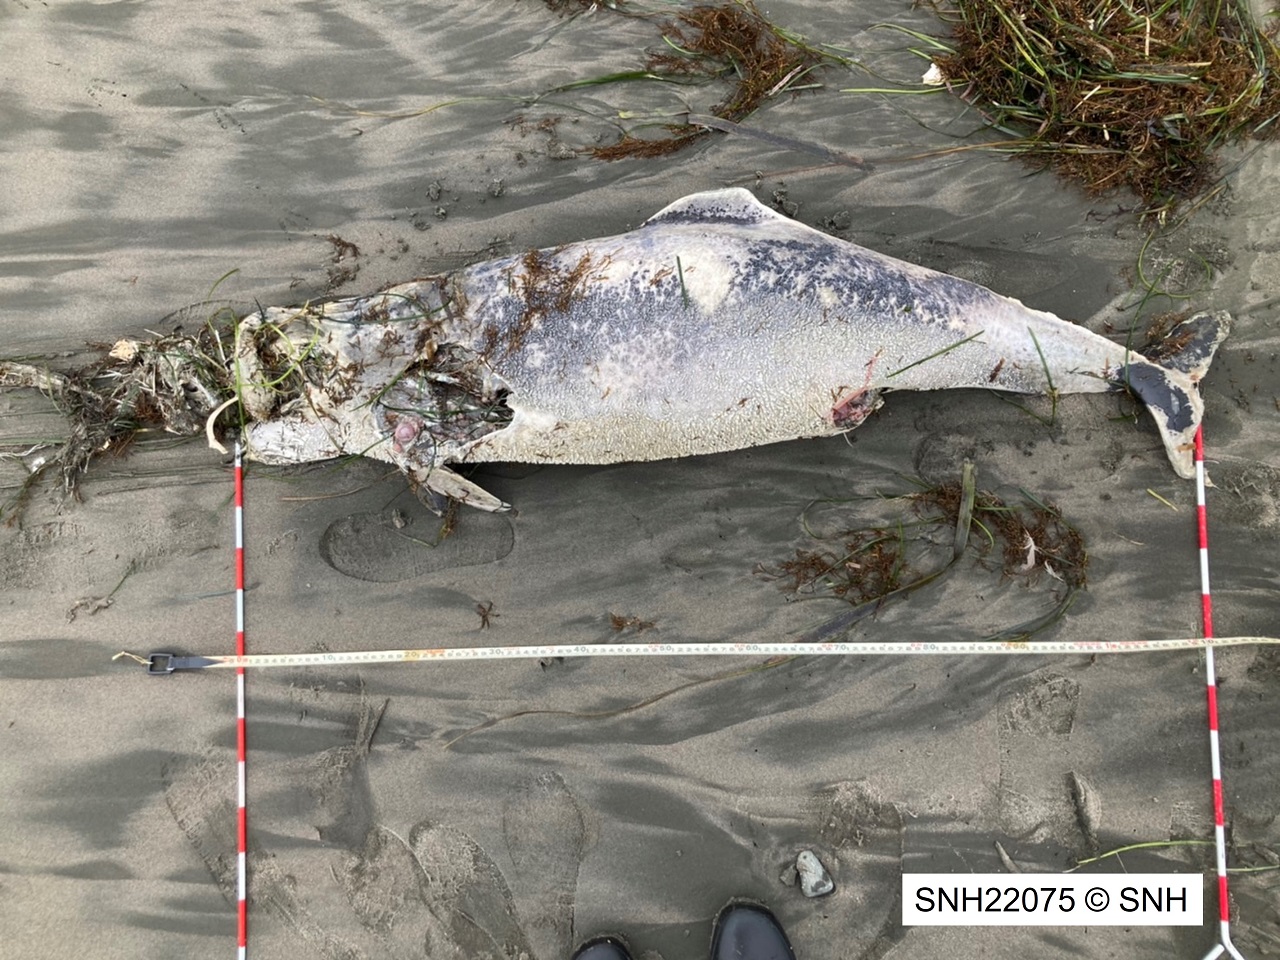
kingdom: Animalia
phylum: Chordata
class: Mammalia
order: Cetacea
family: Phocoenidae
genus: Phocoena
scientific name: Phocoena phocoena
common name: Harbour porpoise
